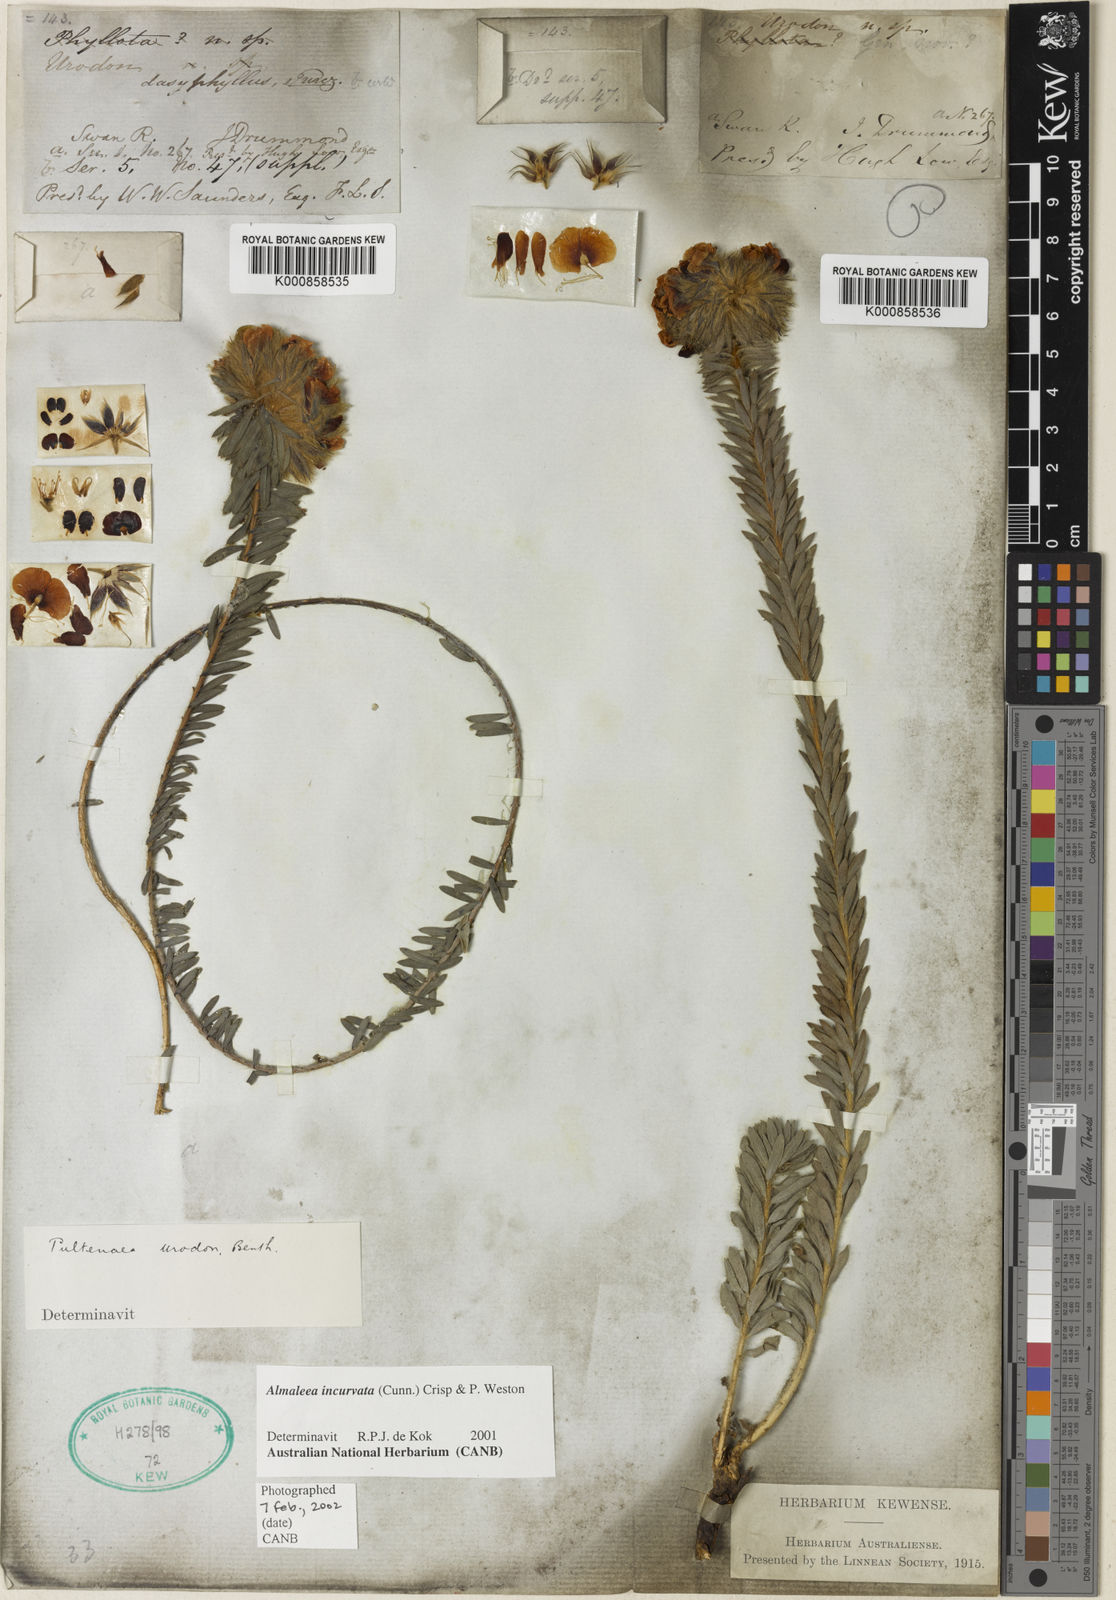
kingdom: Plantae
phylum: Tracheophyta
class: Magnoliopsida
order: Fabales
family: Fabaceae
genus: Almaleea
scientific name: Almaleea incurvata
